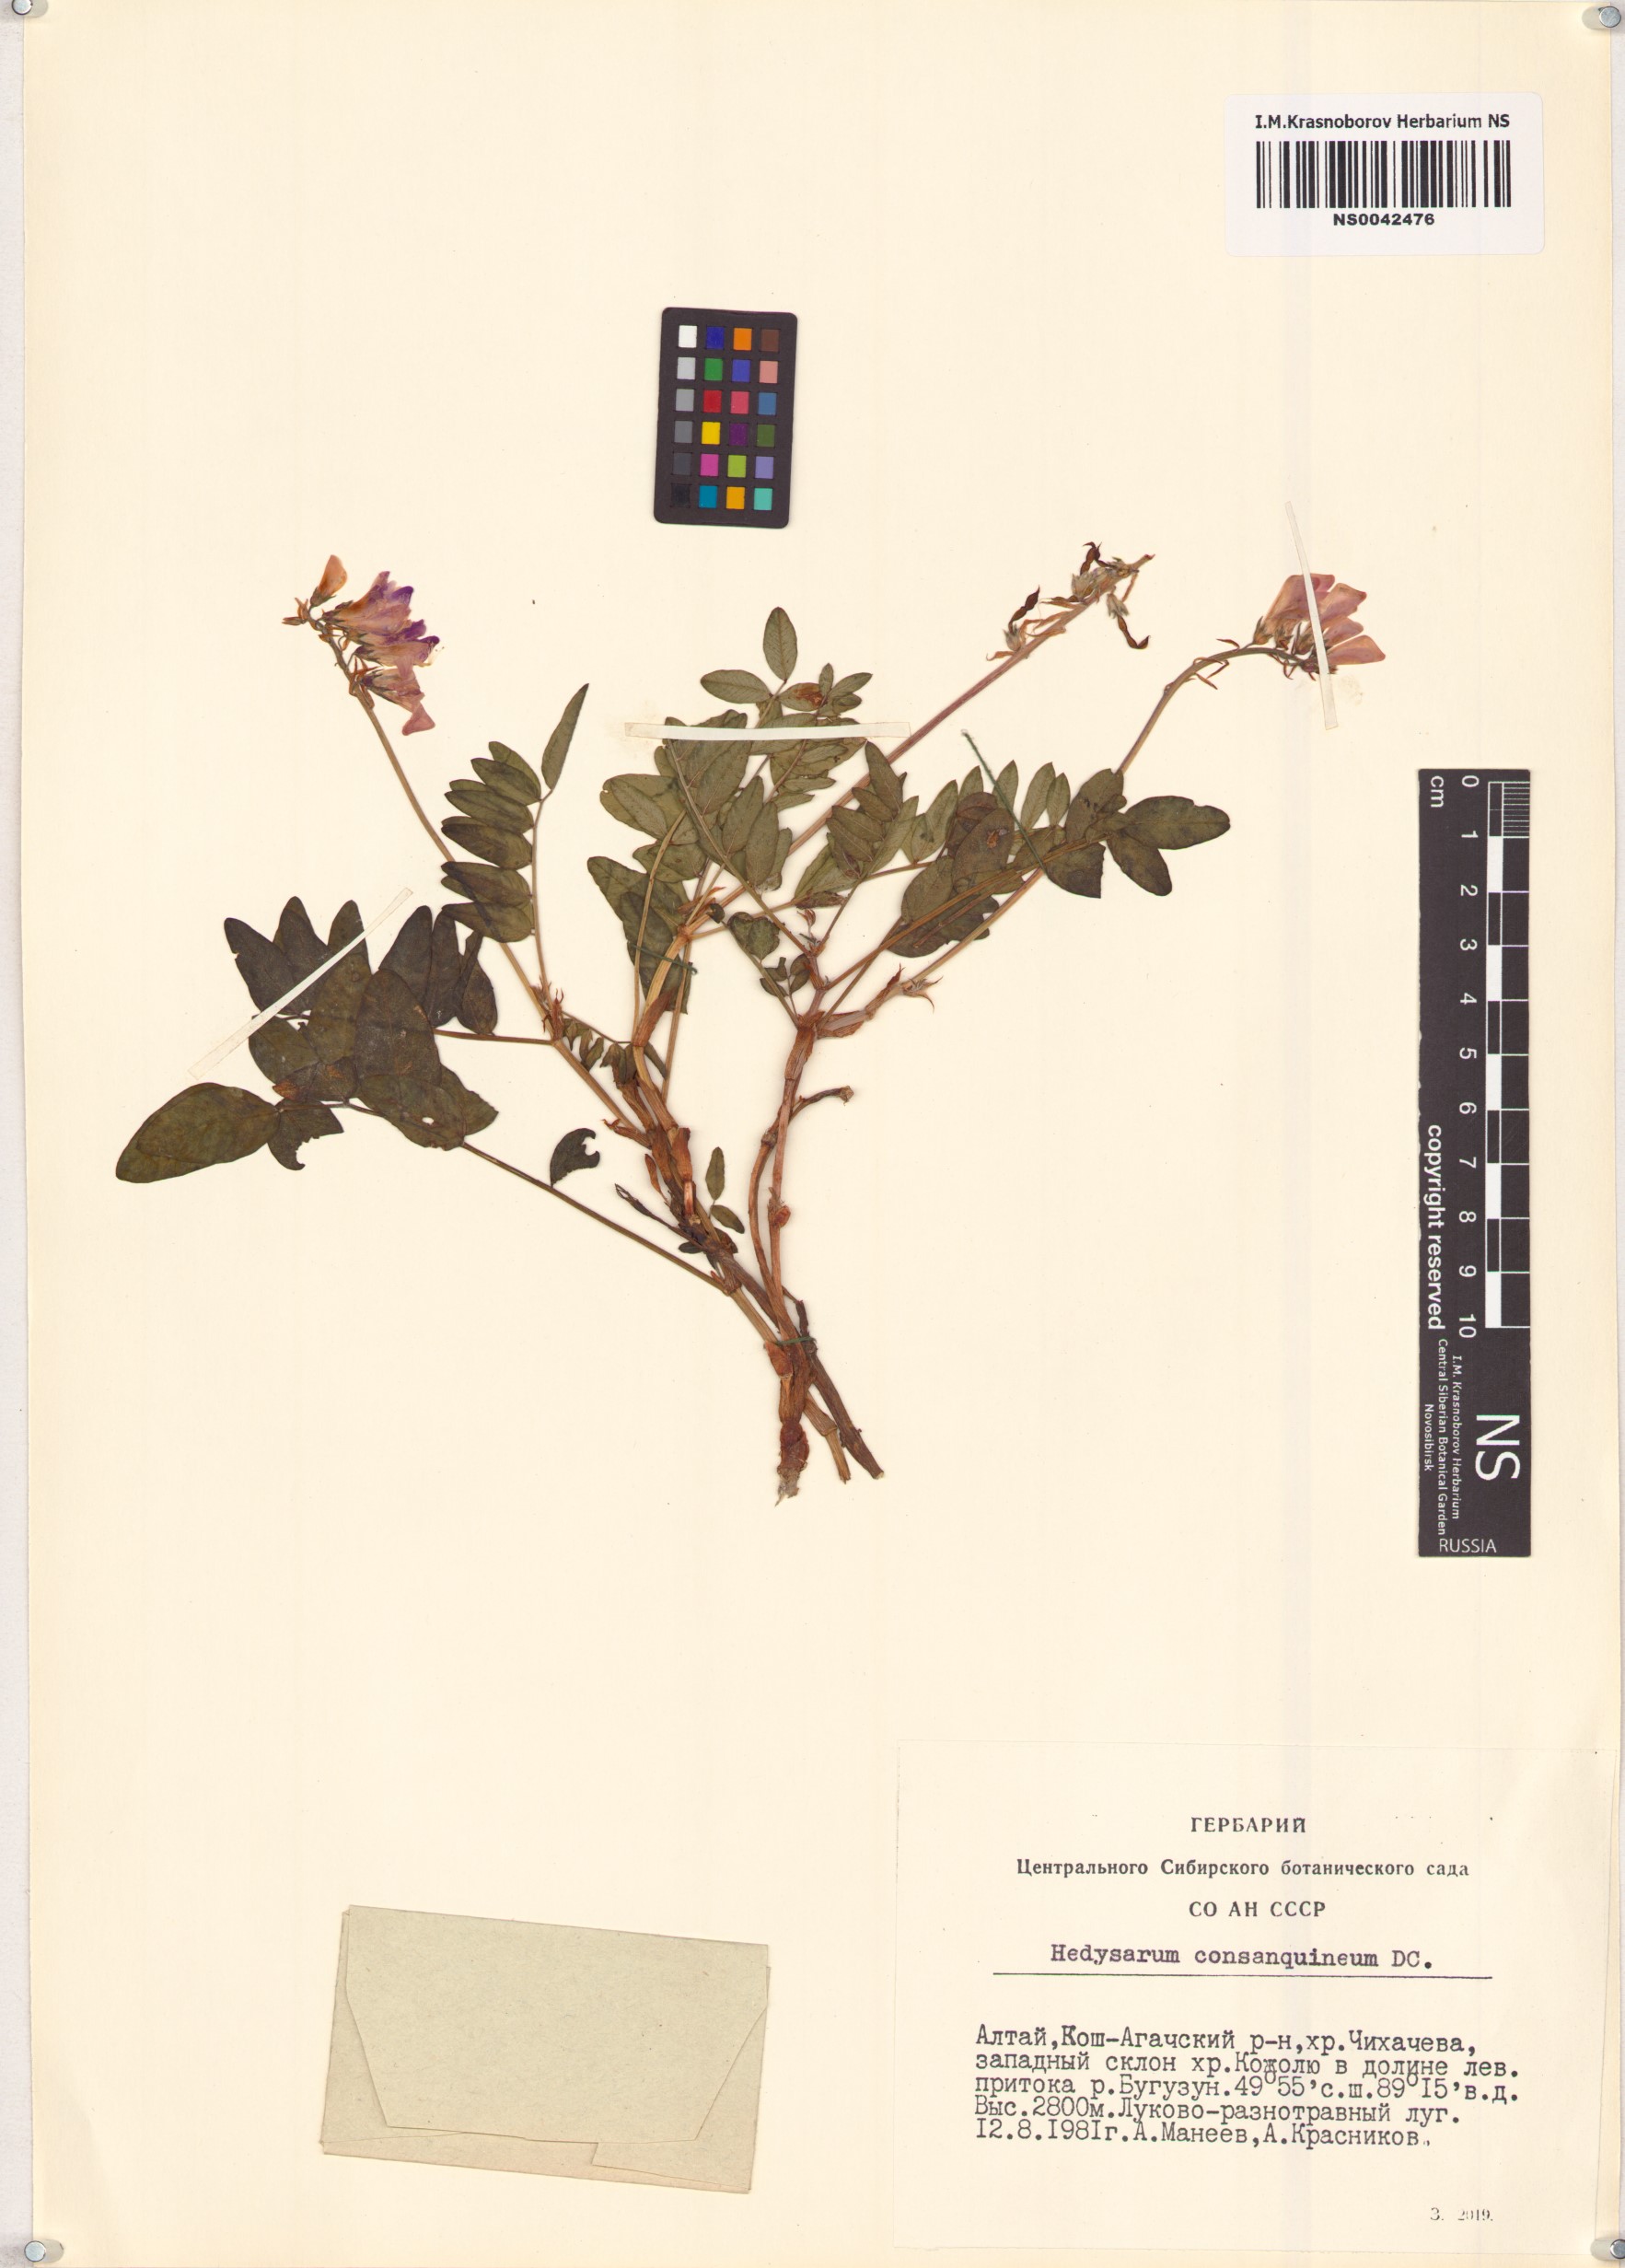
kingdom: Plantae
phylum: Tracheophyta
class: Magnoliopsida
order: Fabales
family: Fabaceae
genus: Hedysarum
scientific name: Hedysarum consanguineum
